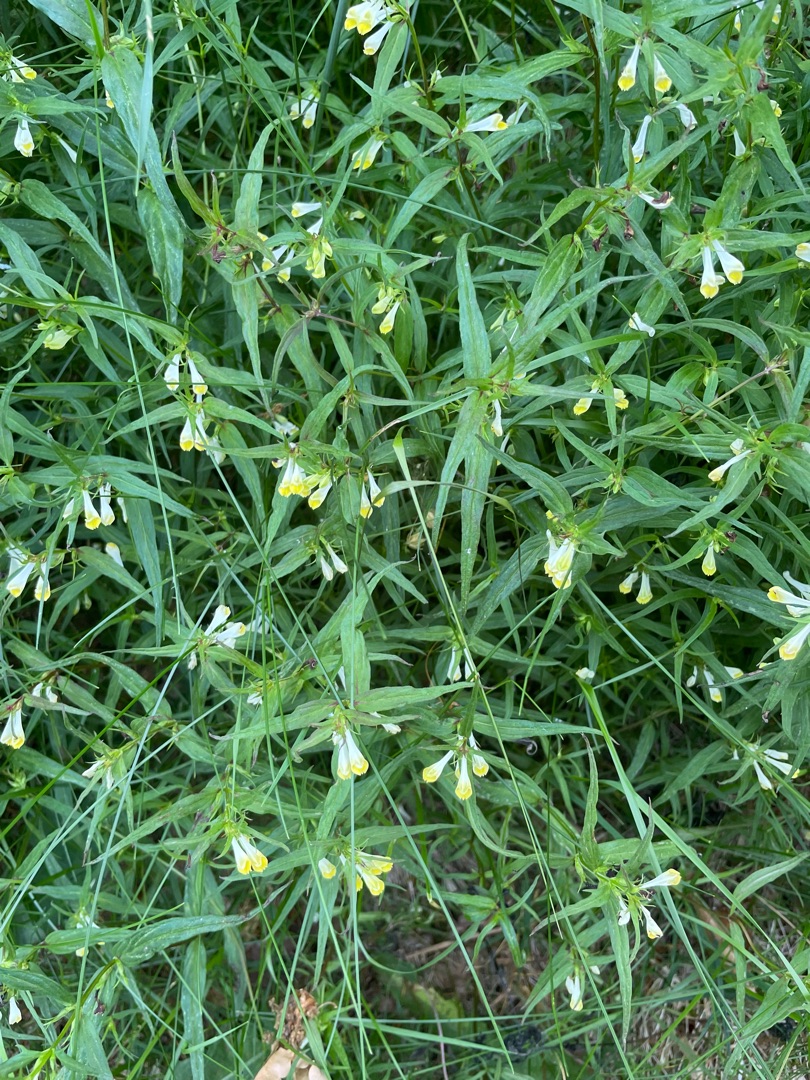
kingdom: Plantae
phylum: Tracheophyta
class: Magnoliopsida
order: Lamiales
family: Orobanchaceae
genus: Melampyrum
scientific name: Melampyrum pratense
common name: Almindelig kohvede
